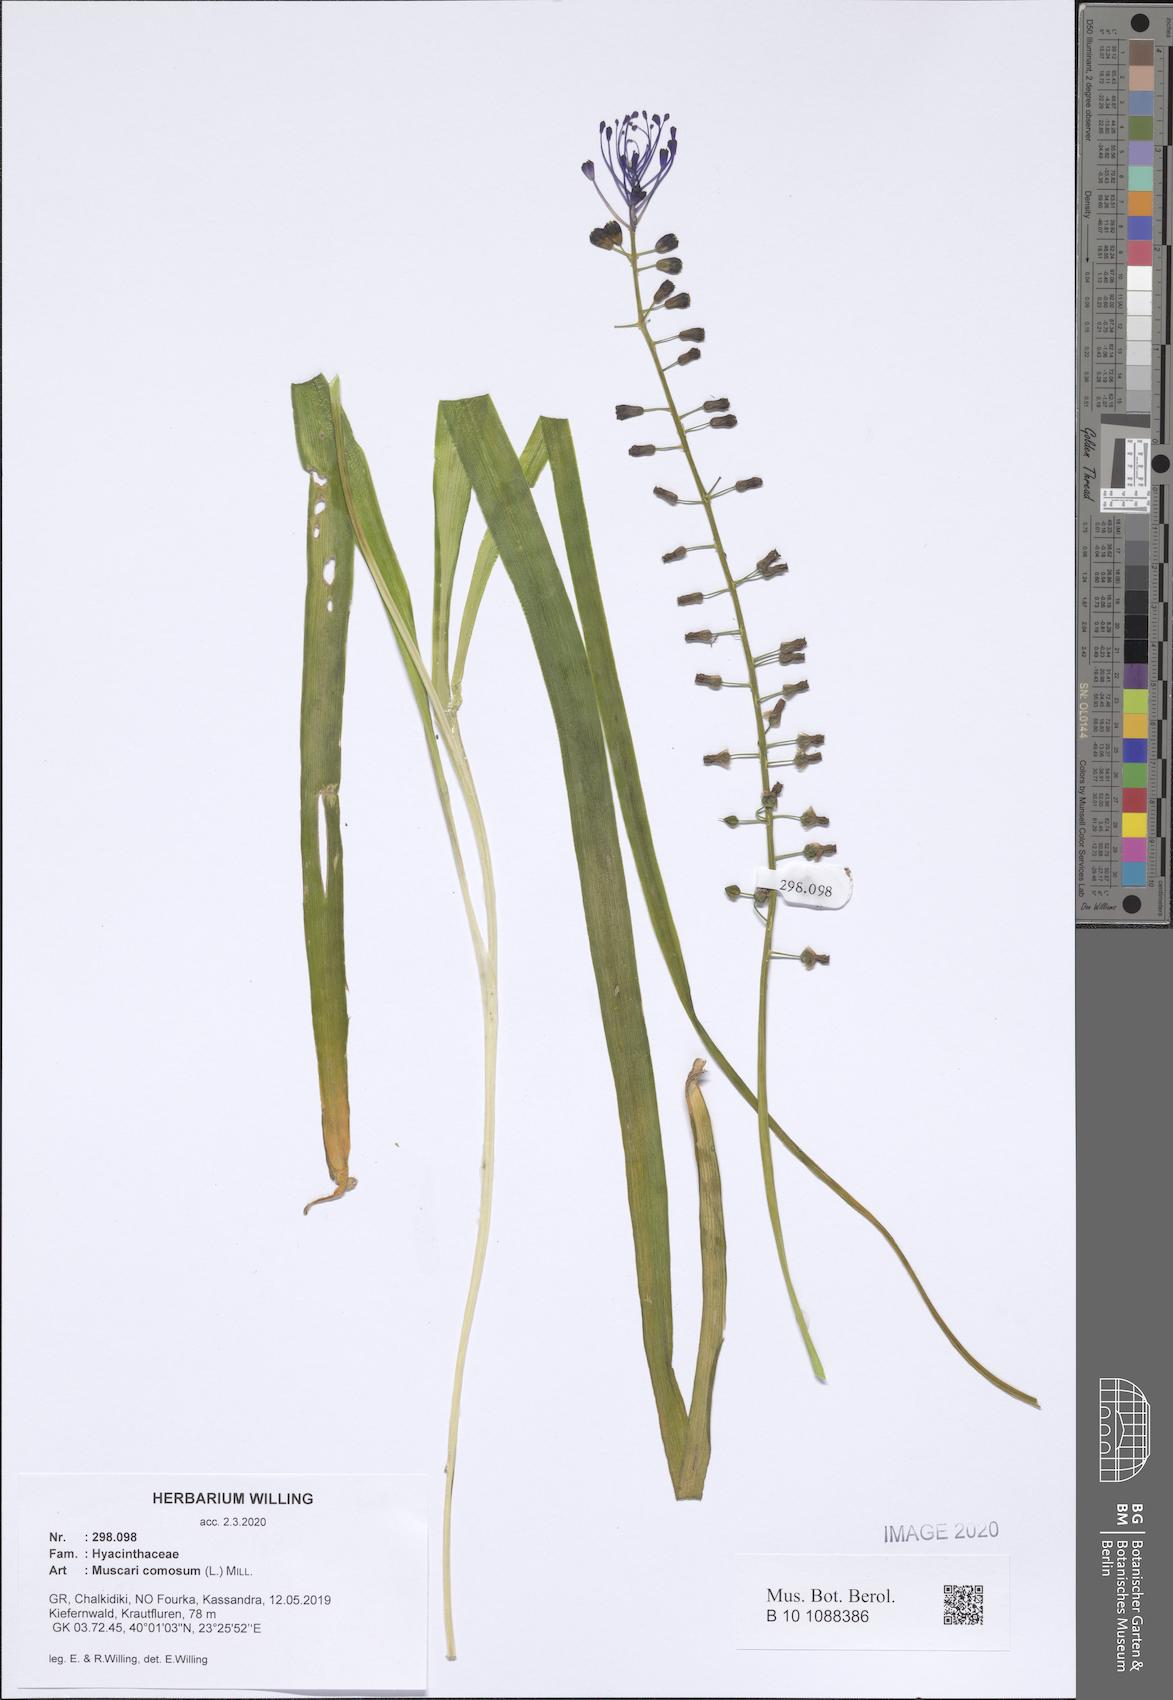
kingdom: Plantae
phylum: Tracheophyta
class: Liliopsida
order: Asparagales
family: Asparagaceae
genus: Muscari
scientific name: Muscari comosum
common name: Tassel hyacinth
